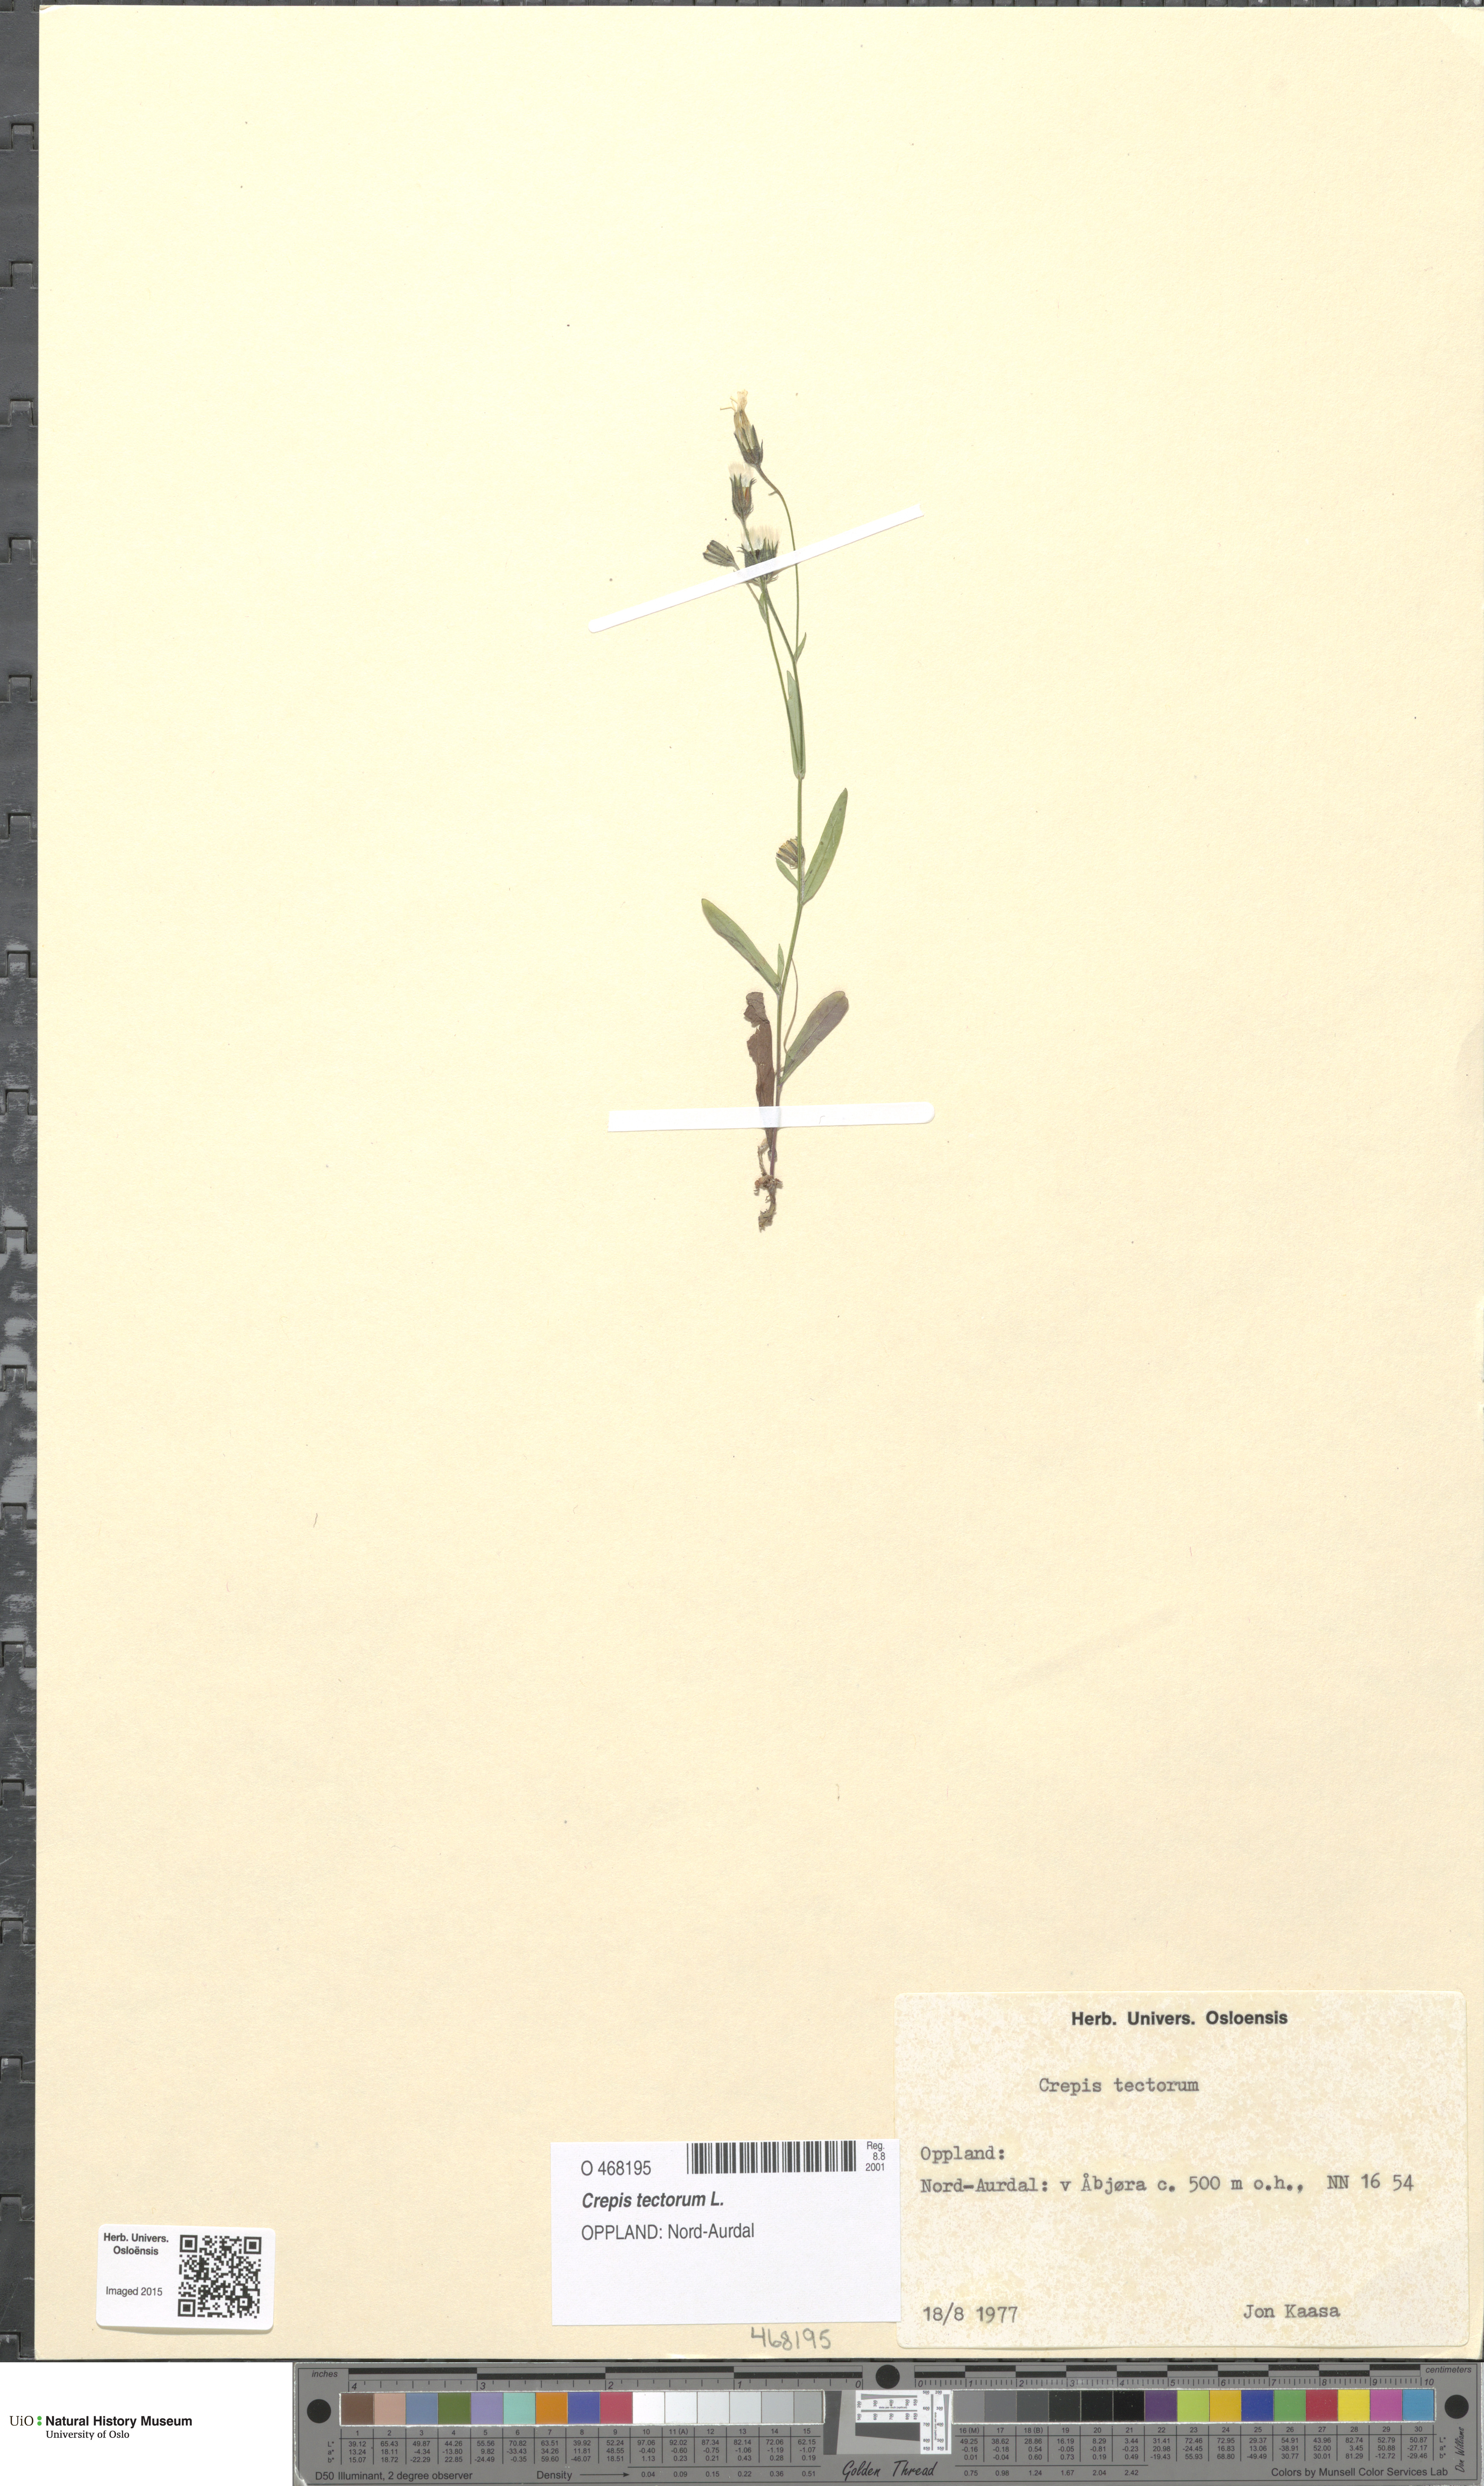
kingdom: Plantae
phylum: Tracheophyta
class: Magnoliopsida
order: Asterales
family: Asteraceae
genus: Crepis
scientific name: Crepis tectorum
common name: Narrow-leaved hawk's-beard
